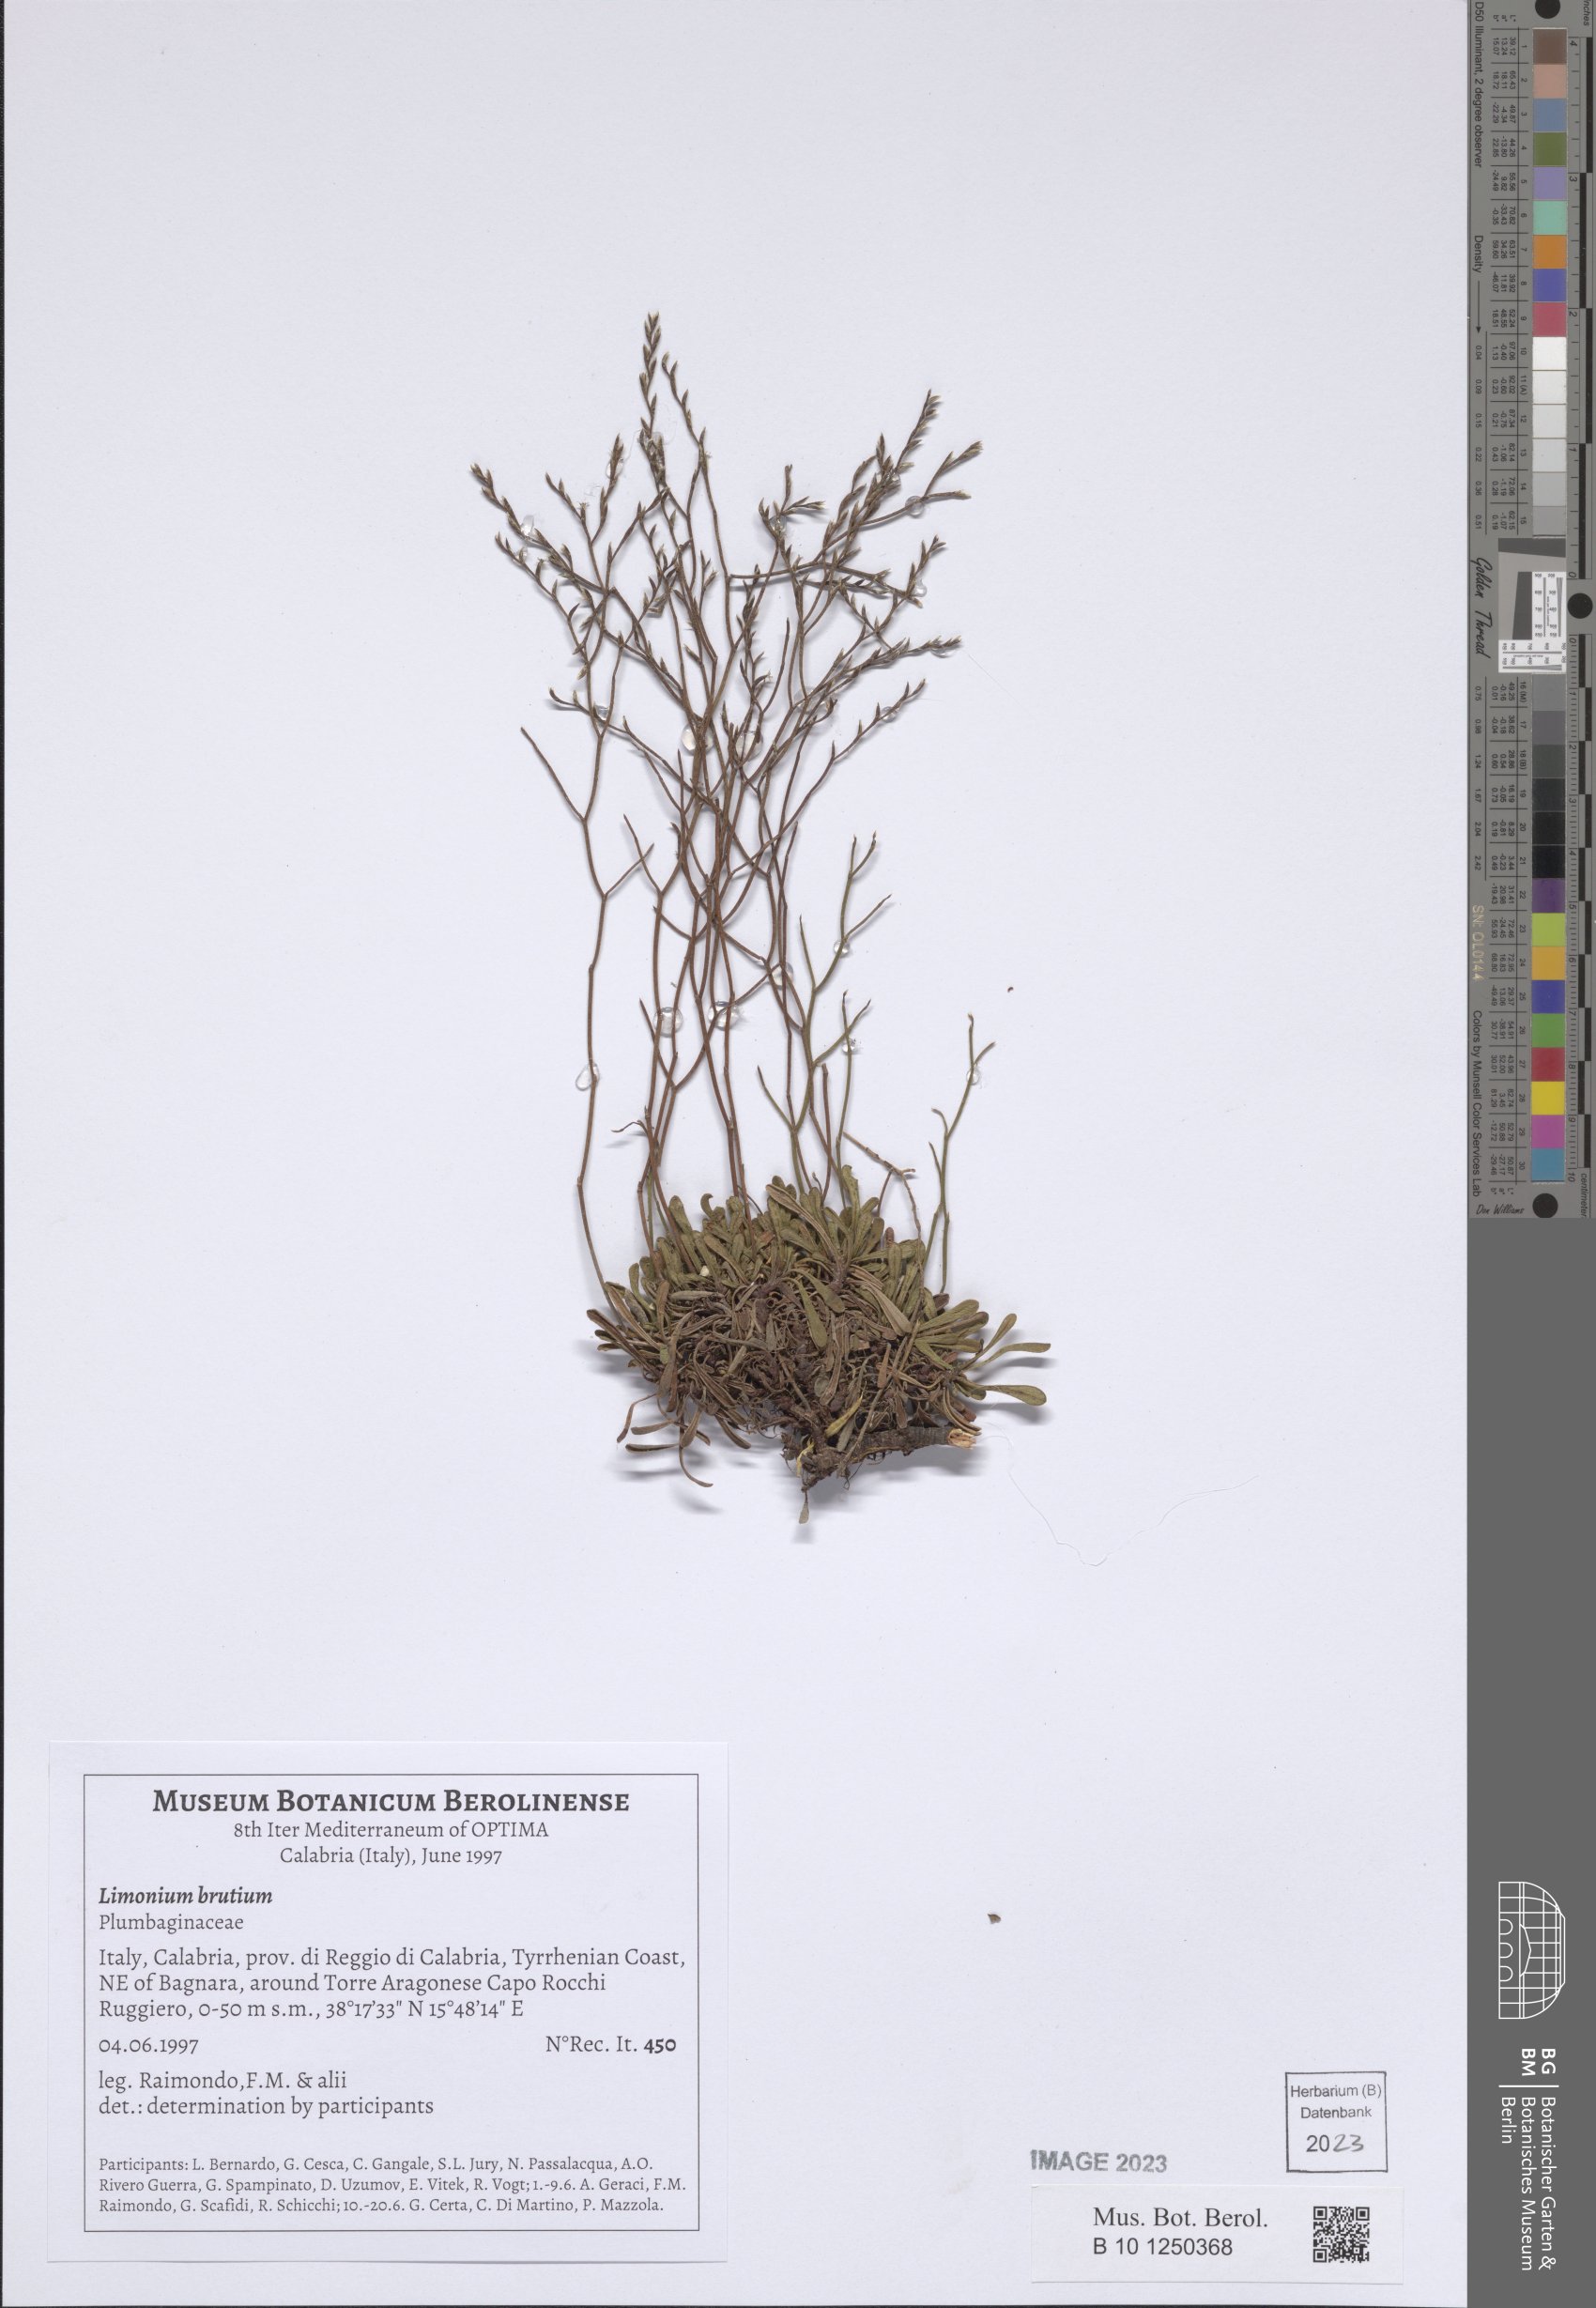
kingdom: Plantae
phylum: Tracheophyta
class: Magnoliopsida
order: Caryophyllales
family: Plumbaginaceae
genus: Limonium
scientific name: Limonium brutium
